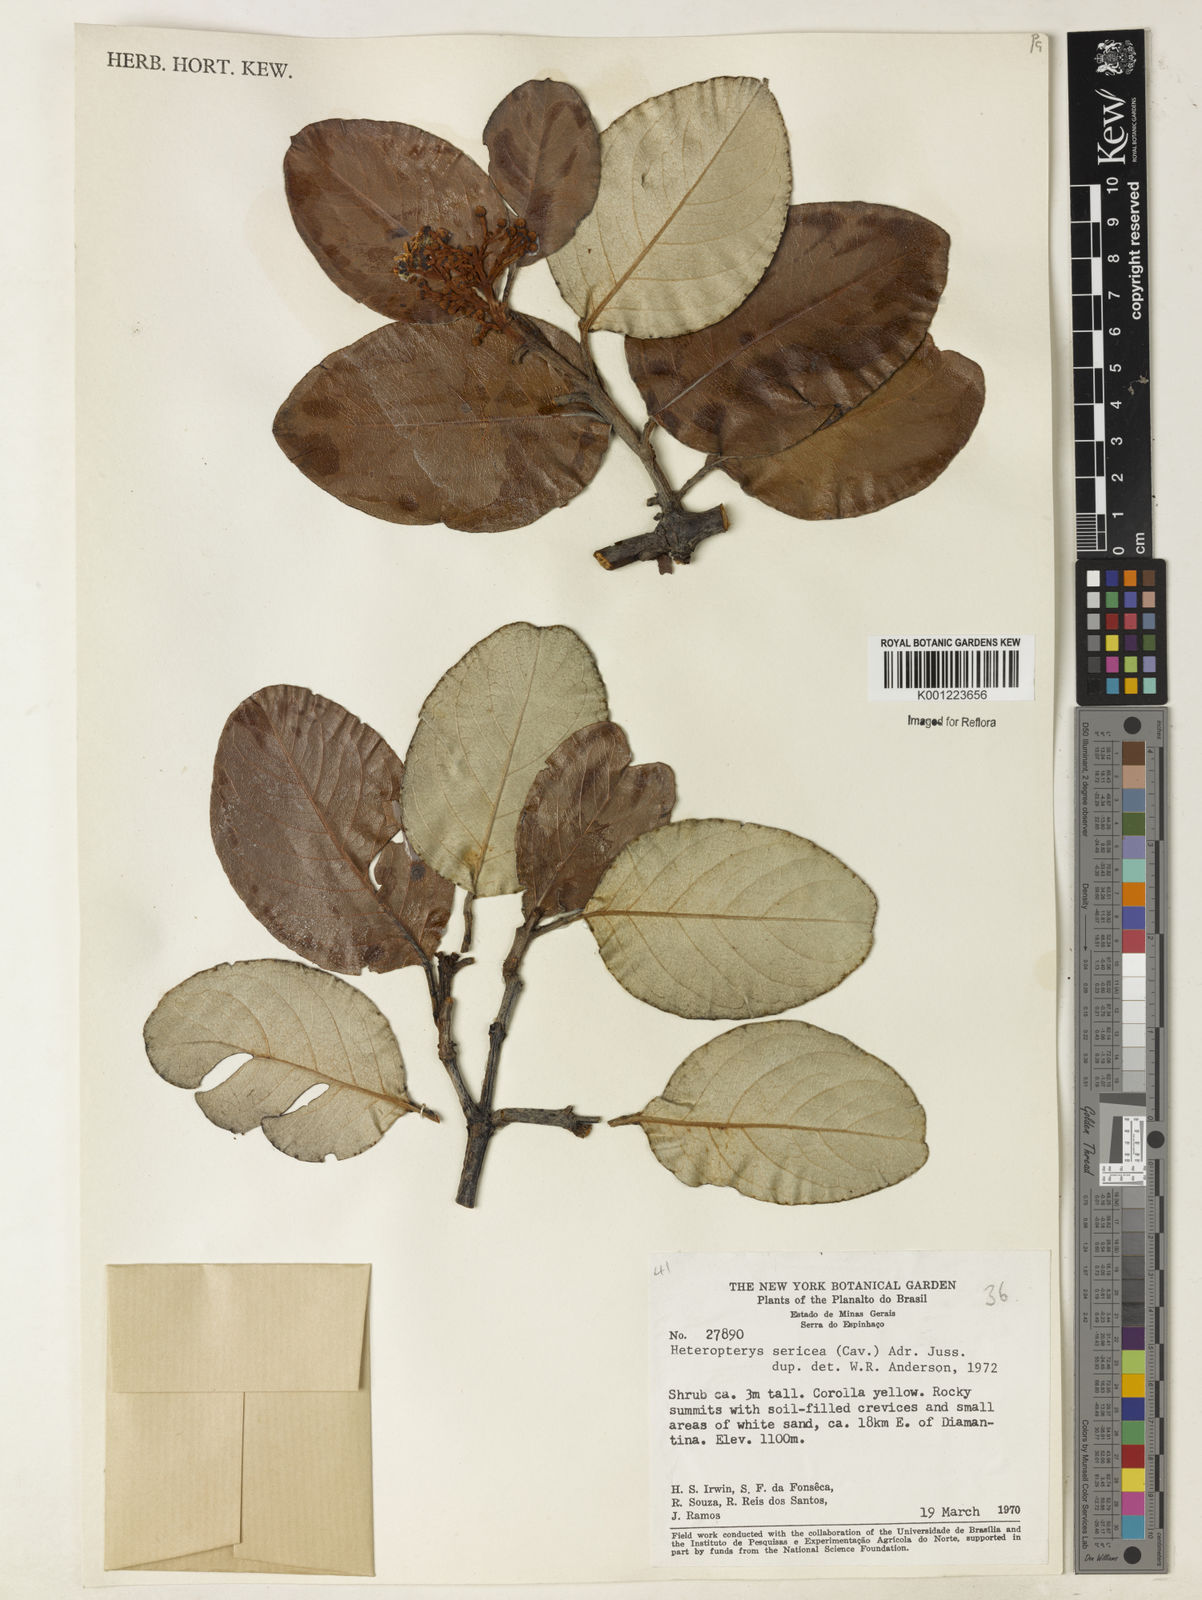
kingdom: Plantae
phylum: Tracheophyta
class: Magnoliopsida
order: Malpighiales
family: Malpighiaceae
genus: Heteropterys
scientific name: Heteropterys sericea
